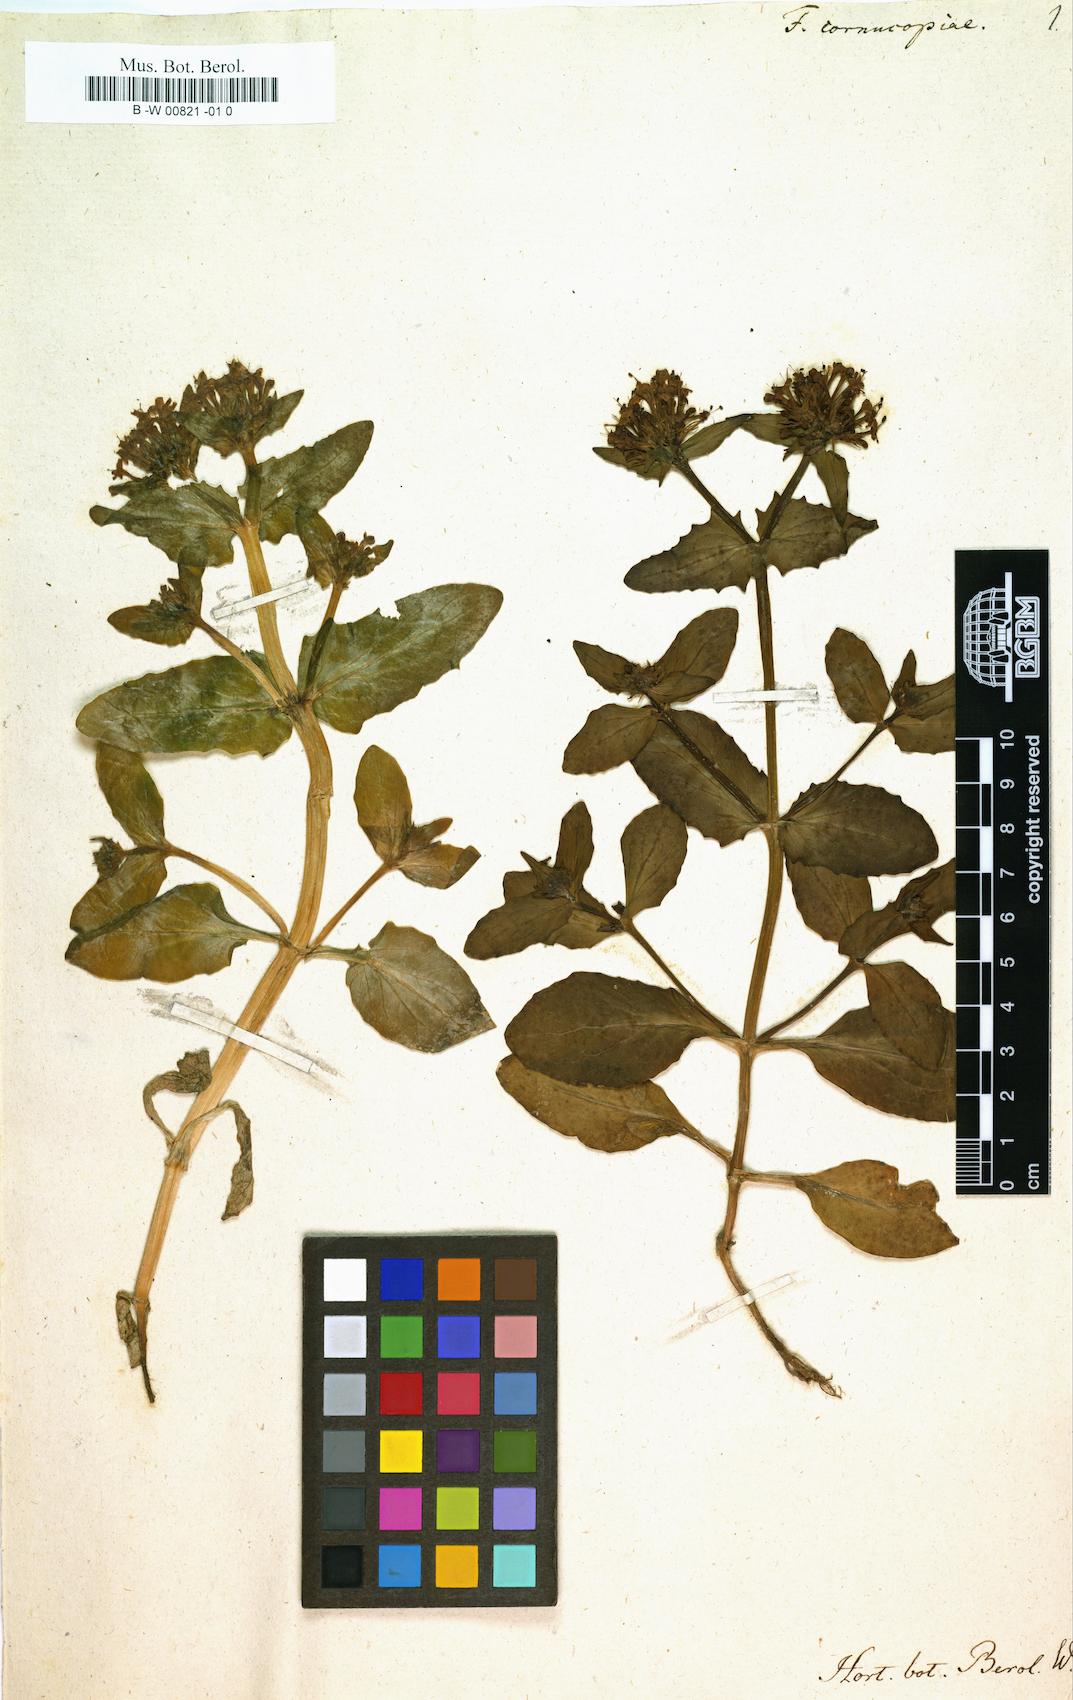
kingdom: Plantae
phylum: Tracheophyta
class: Magnoliopsida
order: Dipsacales
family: Caprifoliaceae
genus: Fedia
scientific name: Fedia cornucopiae
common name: Horn-of-plenty
